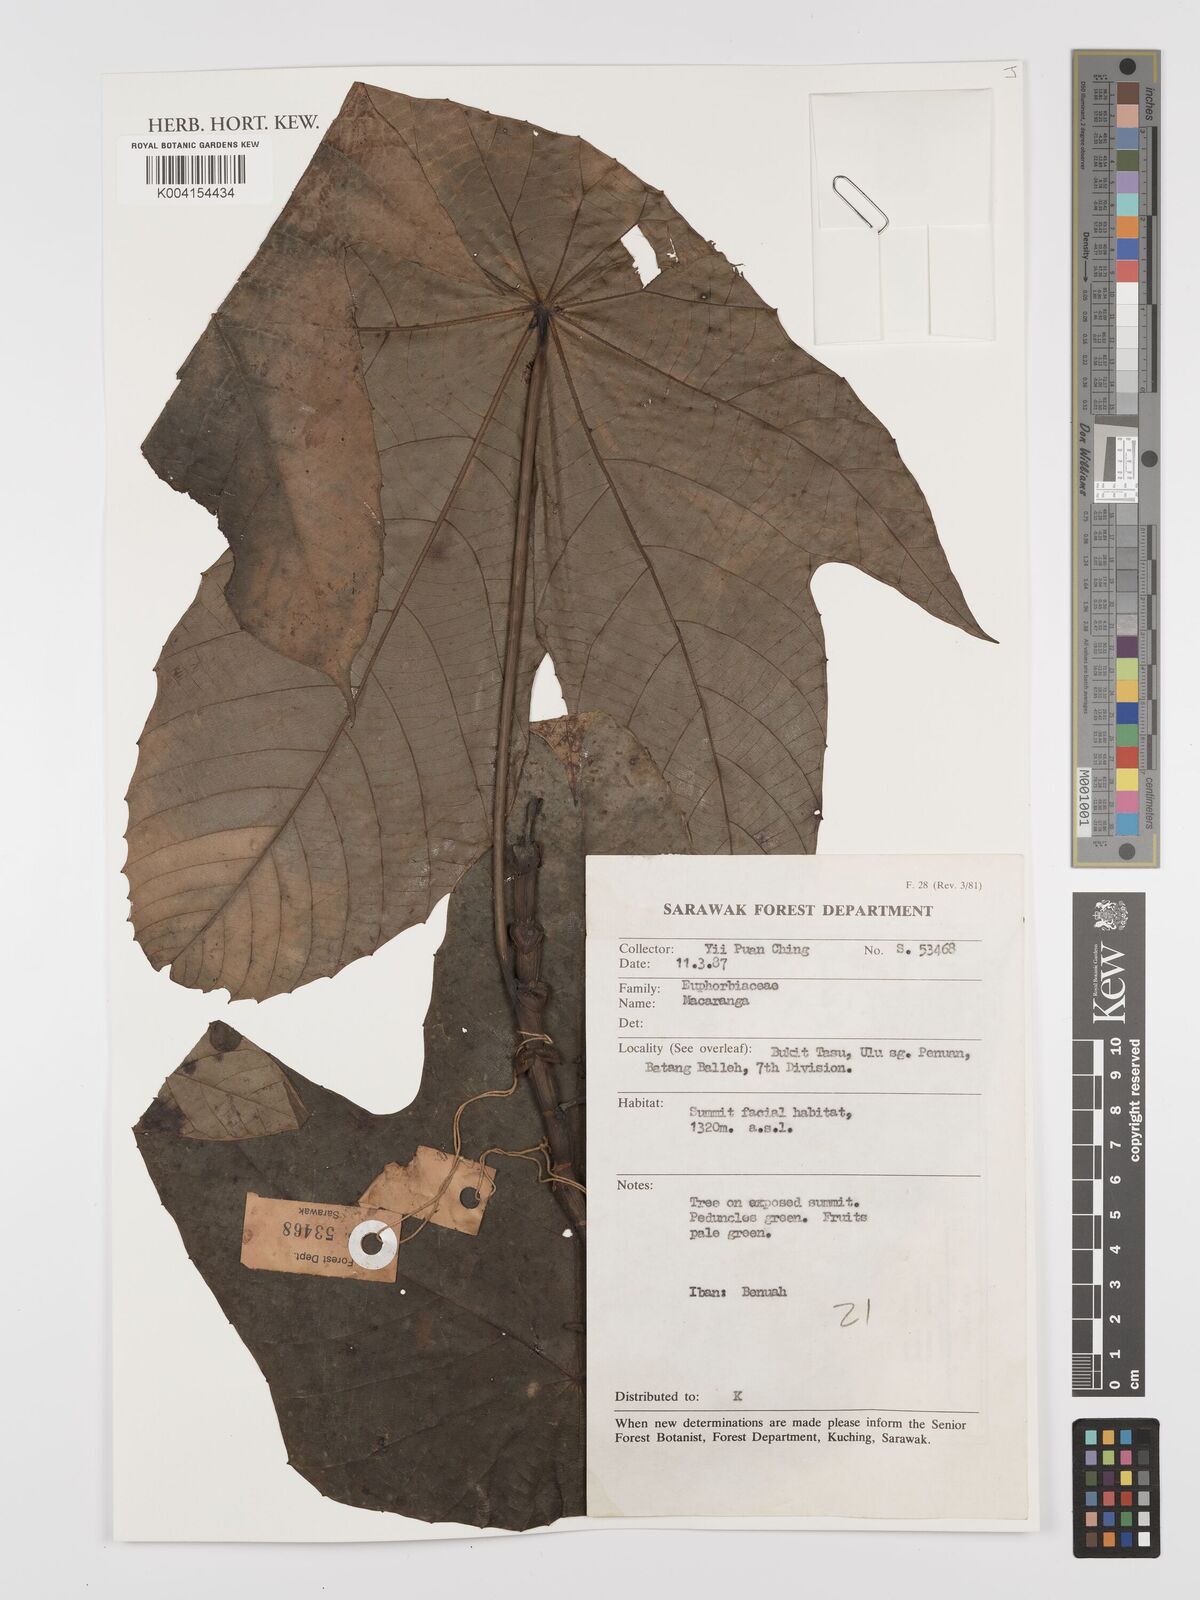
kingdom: Plantae
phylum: Tracheophyta
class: Magnoliopsida
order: Malpighiales
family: Euphorbiaceae
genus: Macaranga
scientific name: Macaranga
